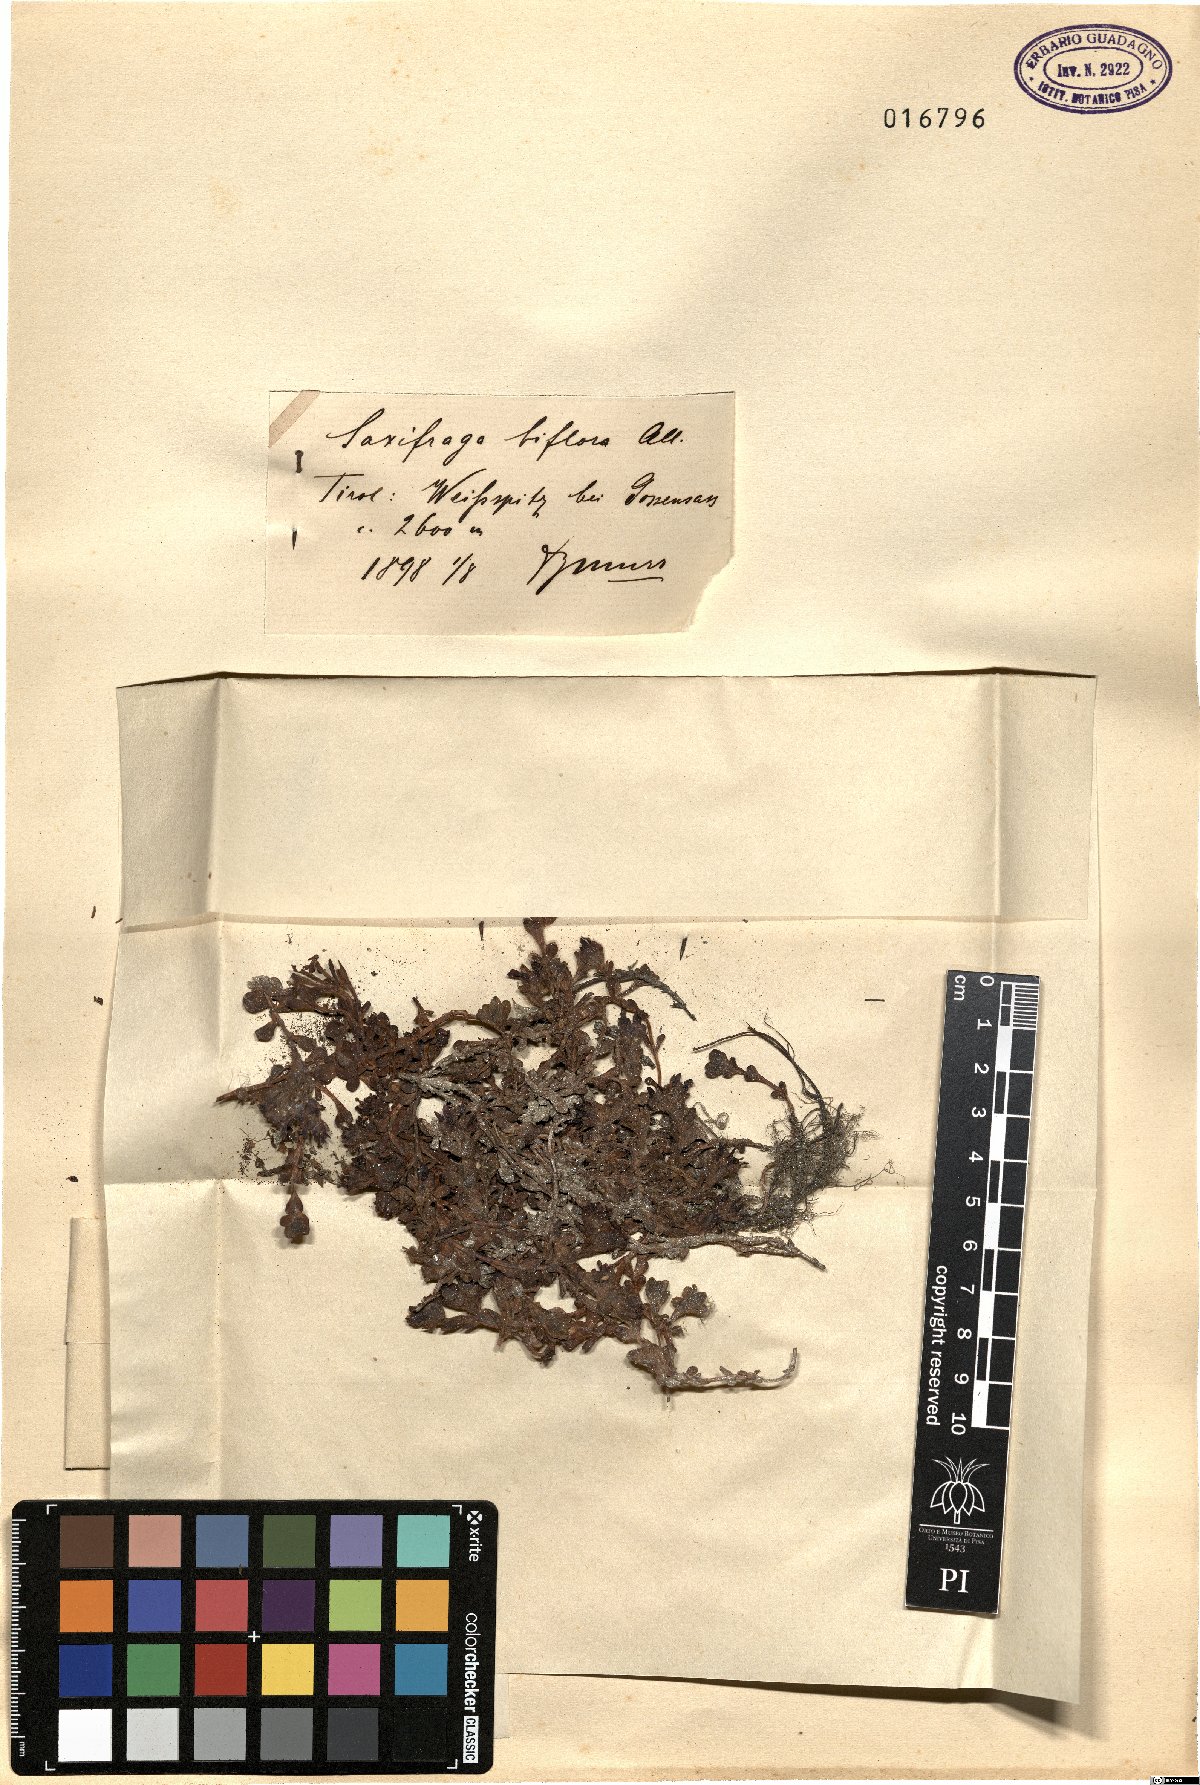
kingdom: Plantae
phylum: Tracheophyta
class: Magnoliopsida
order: Saxifragales
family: Saxifragaceae
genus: Saxifraga
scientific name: Saxifraga biflora
